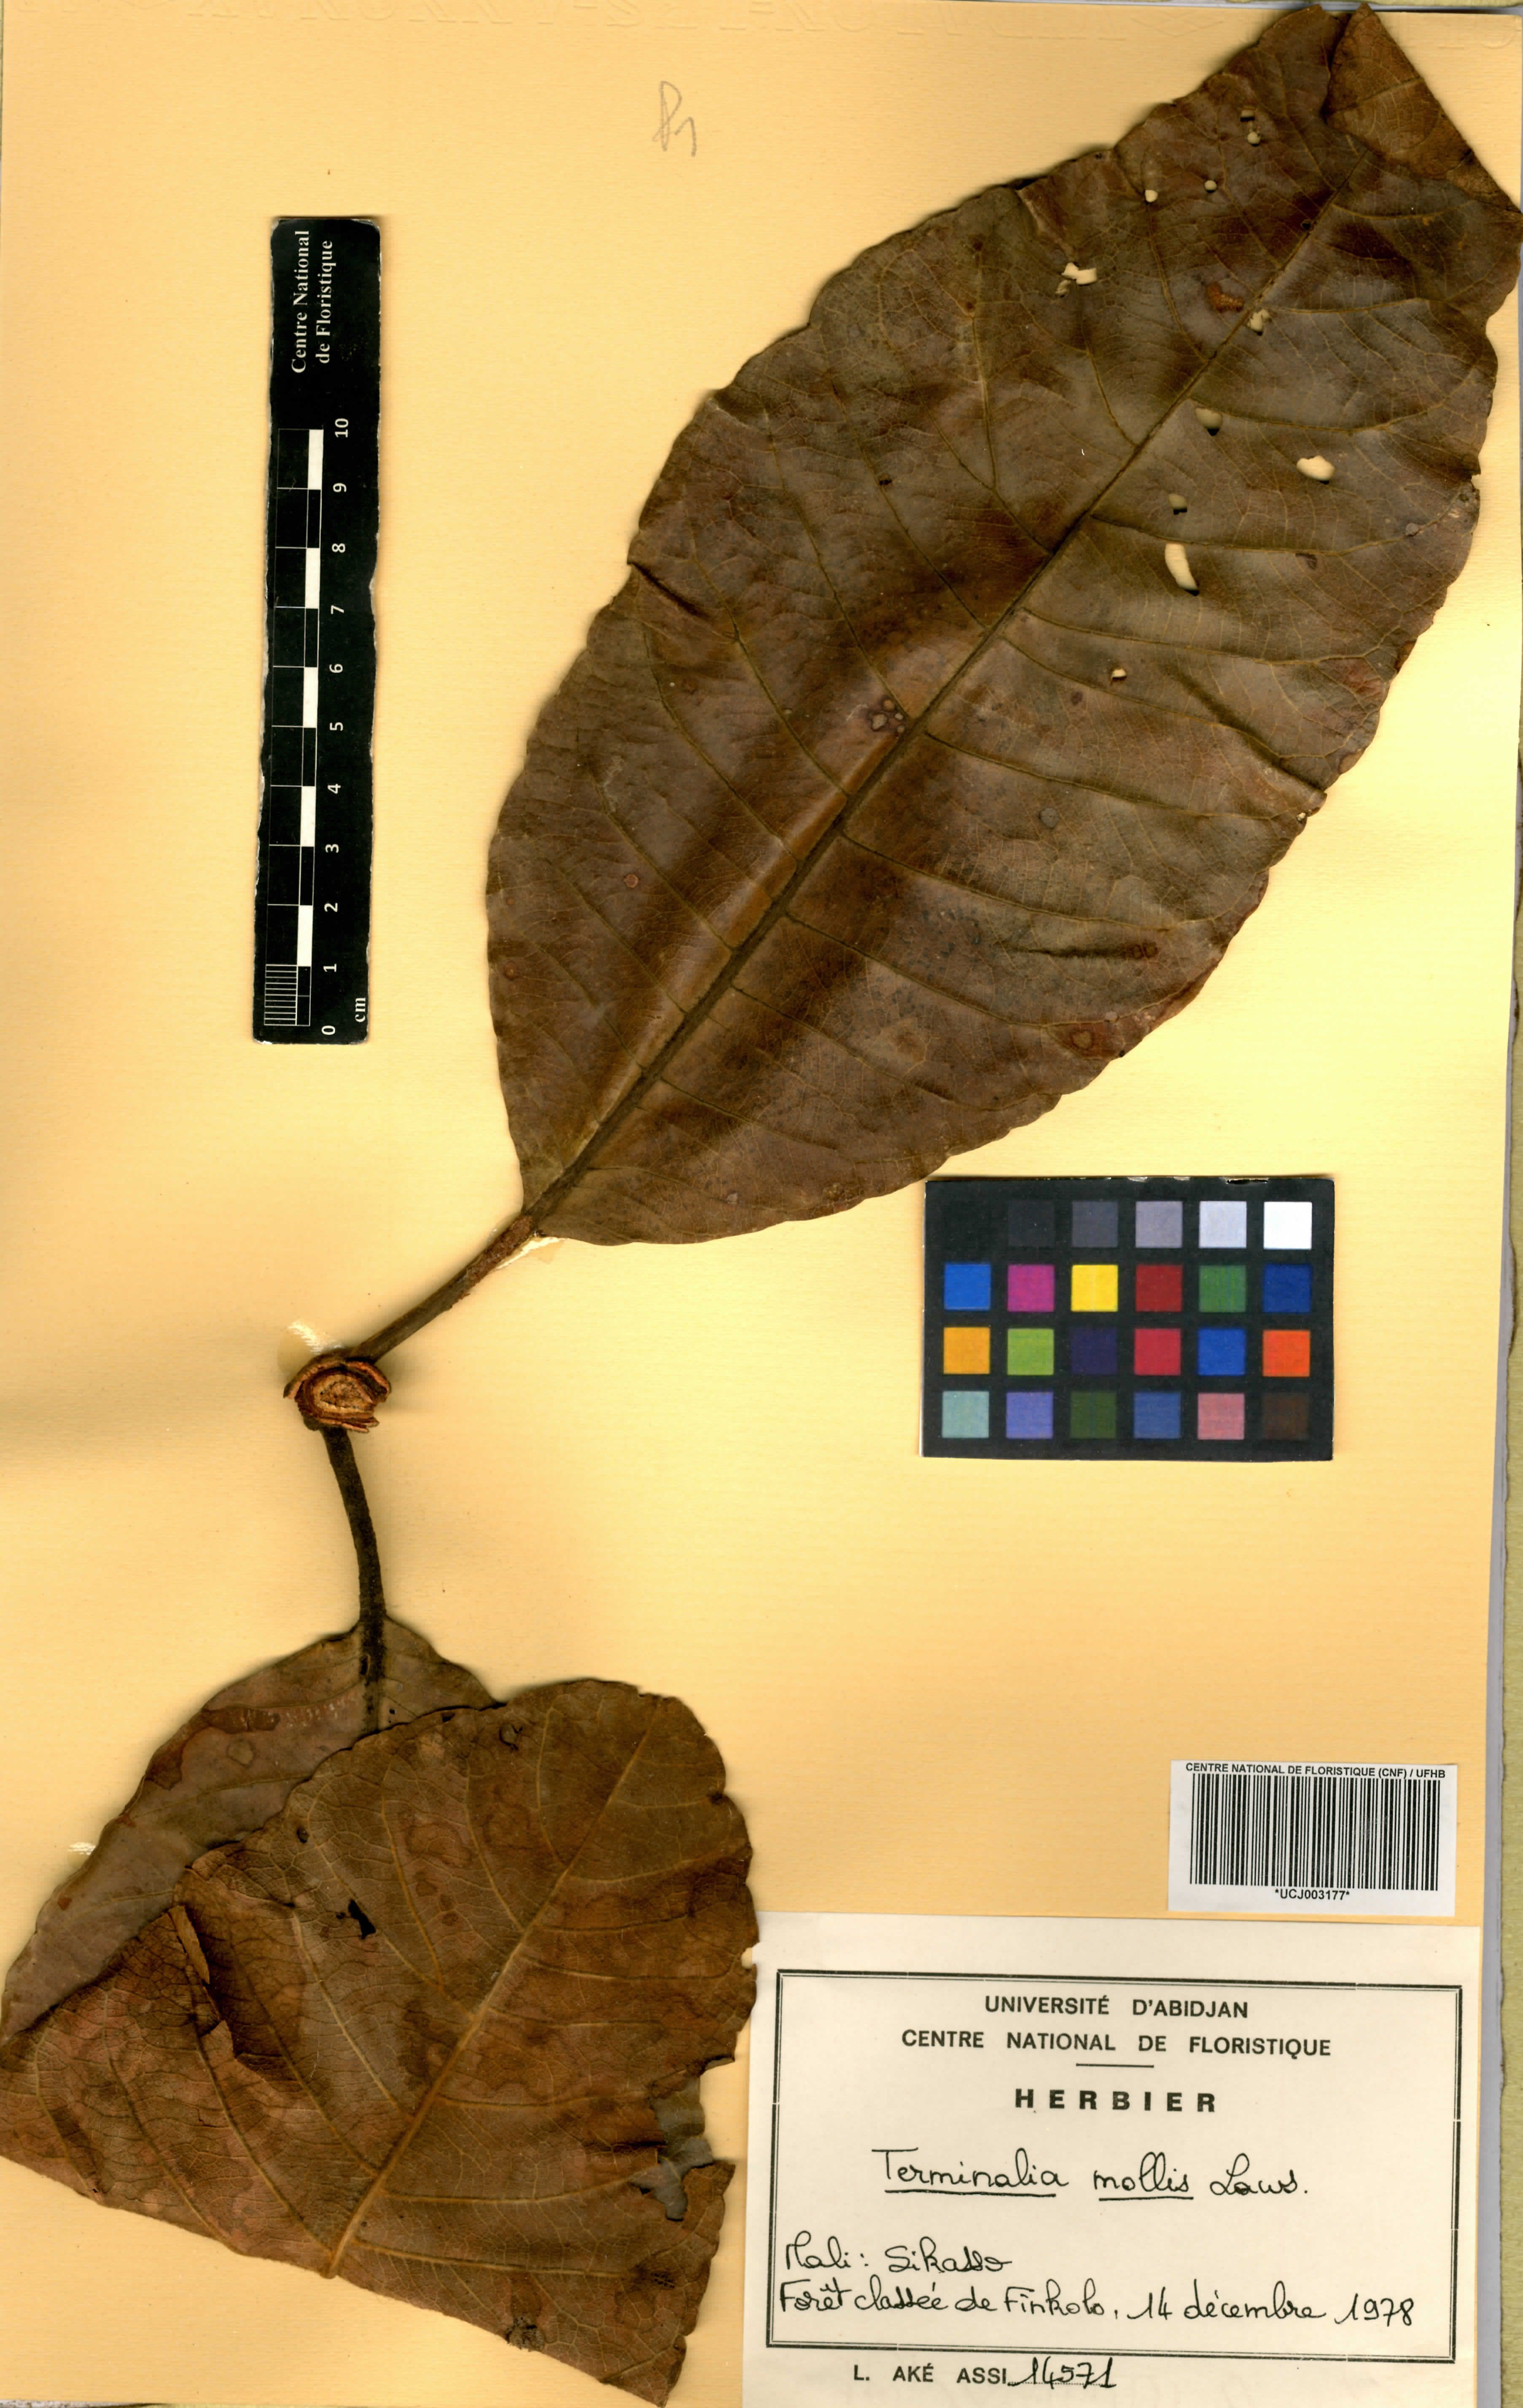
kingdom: Plantae
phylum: Tracheophyta
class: Magnoliopsida
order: Myrtales
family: Combretaceae
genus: Terminalia
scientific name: Terminalia mollis
